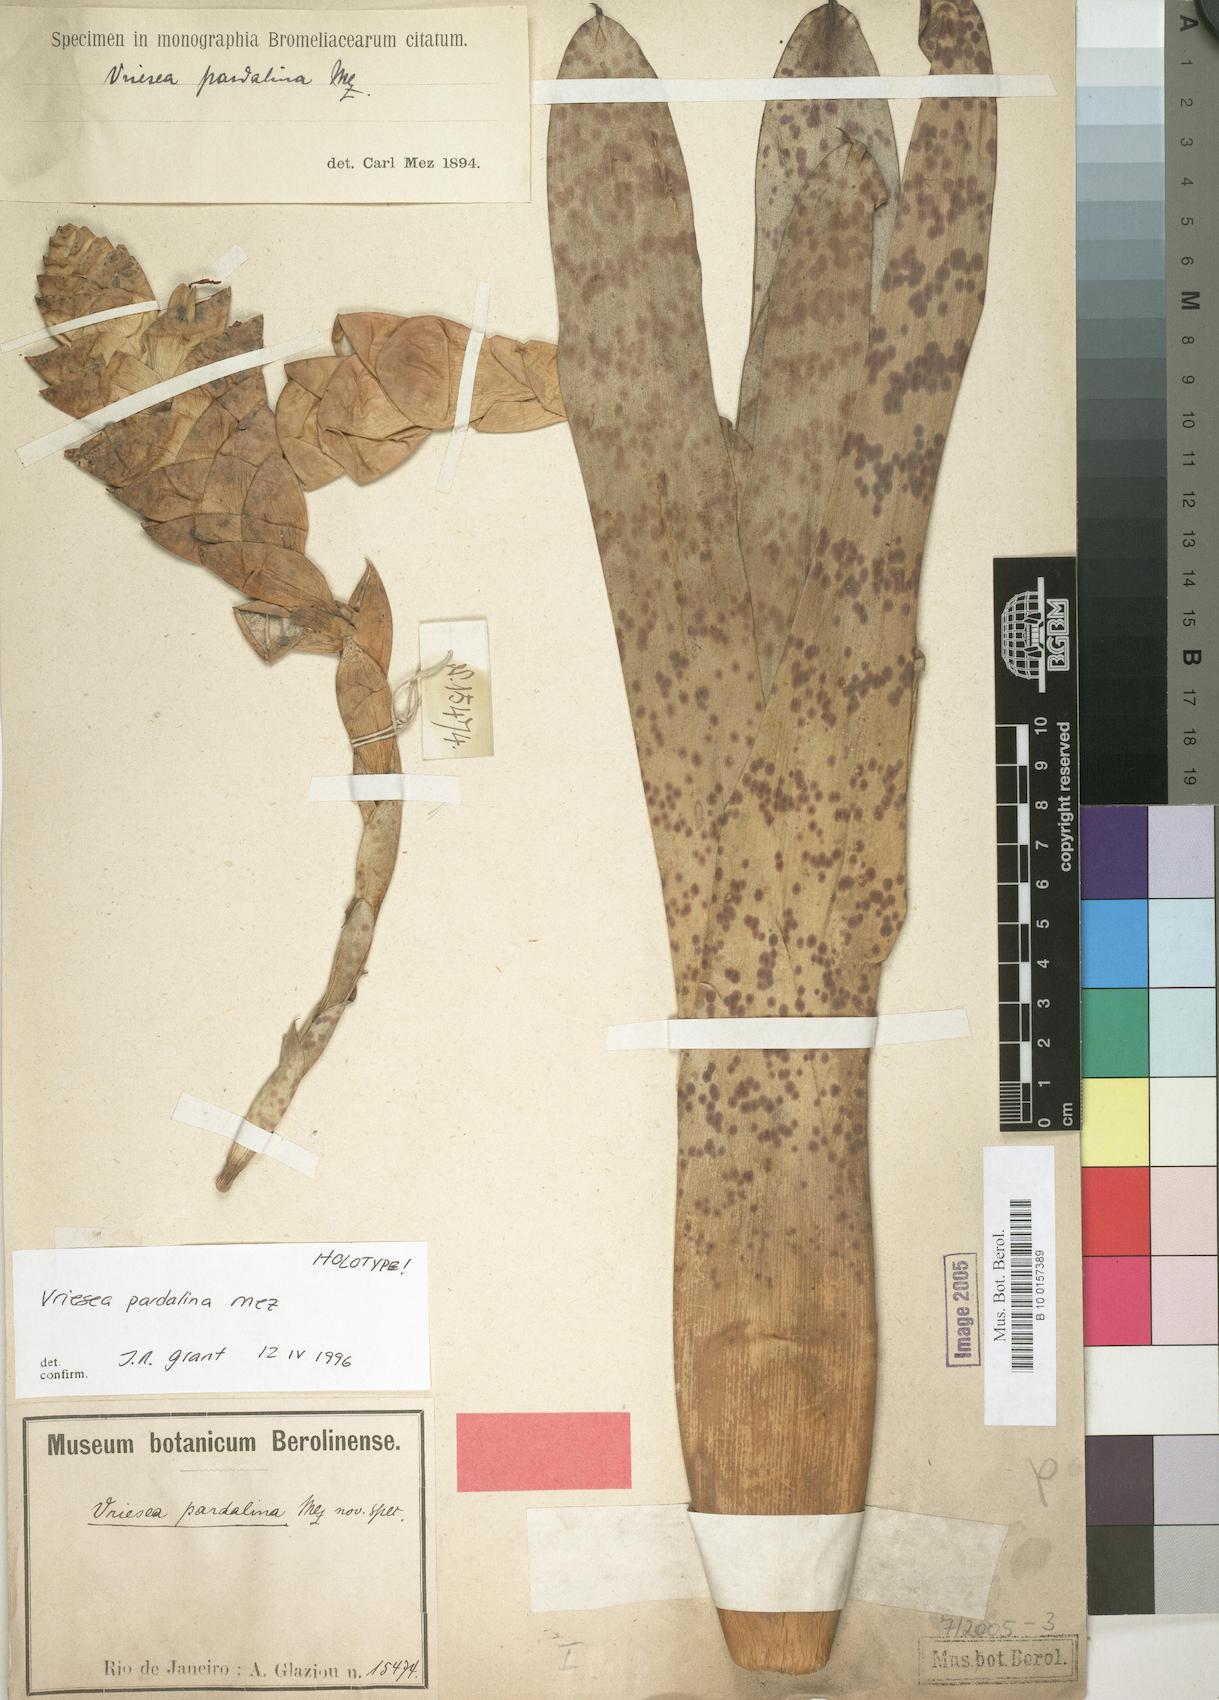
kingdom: Plantae
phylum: Tracheophyta
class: Liliopsida
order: Poales
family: Bromeliaceae
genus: Vriesea
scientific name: Vriesea pardalina
